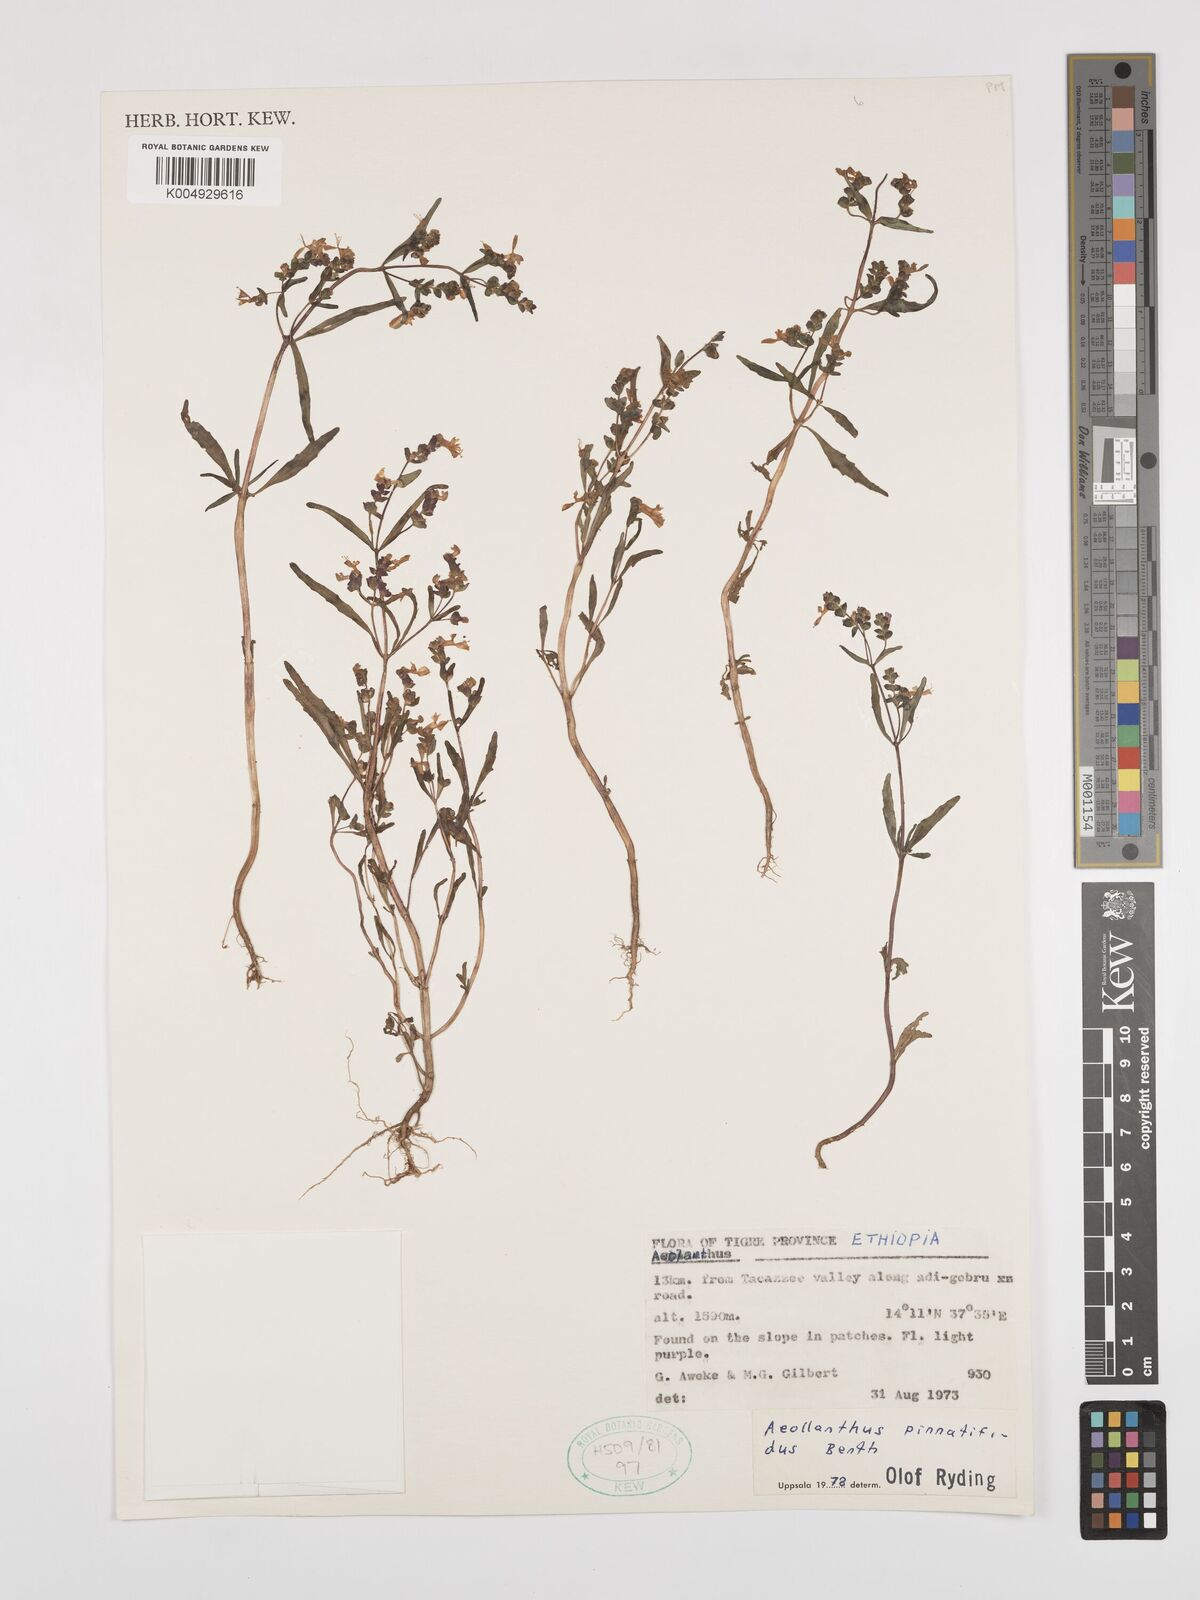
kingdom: Plantae
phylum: Tracheophyta
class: Magnoliopsida
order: Lamiales
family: Lamiaceae
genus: Aeollanthus
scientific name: Aeollanthus pinnatifidus
